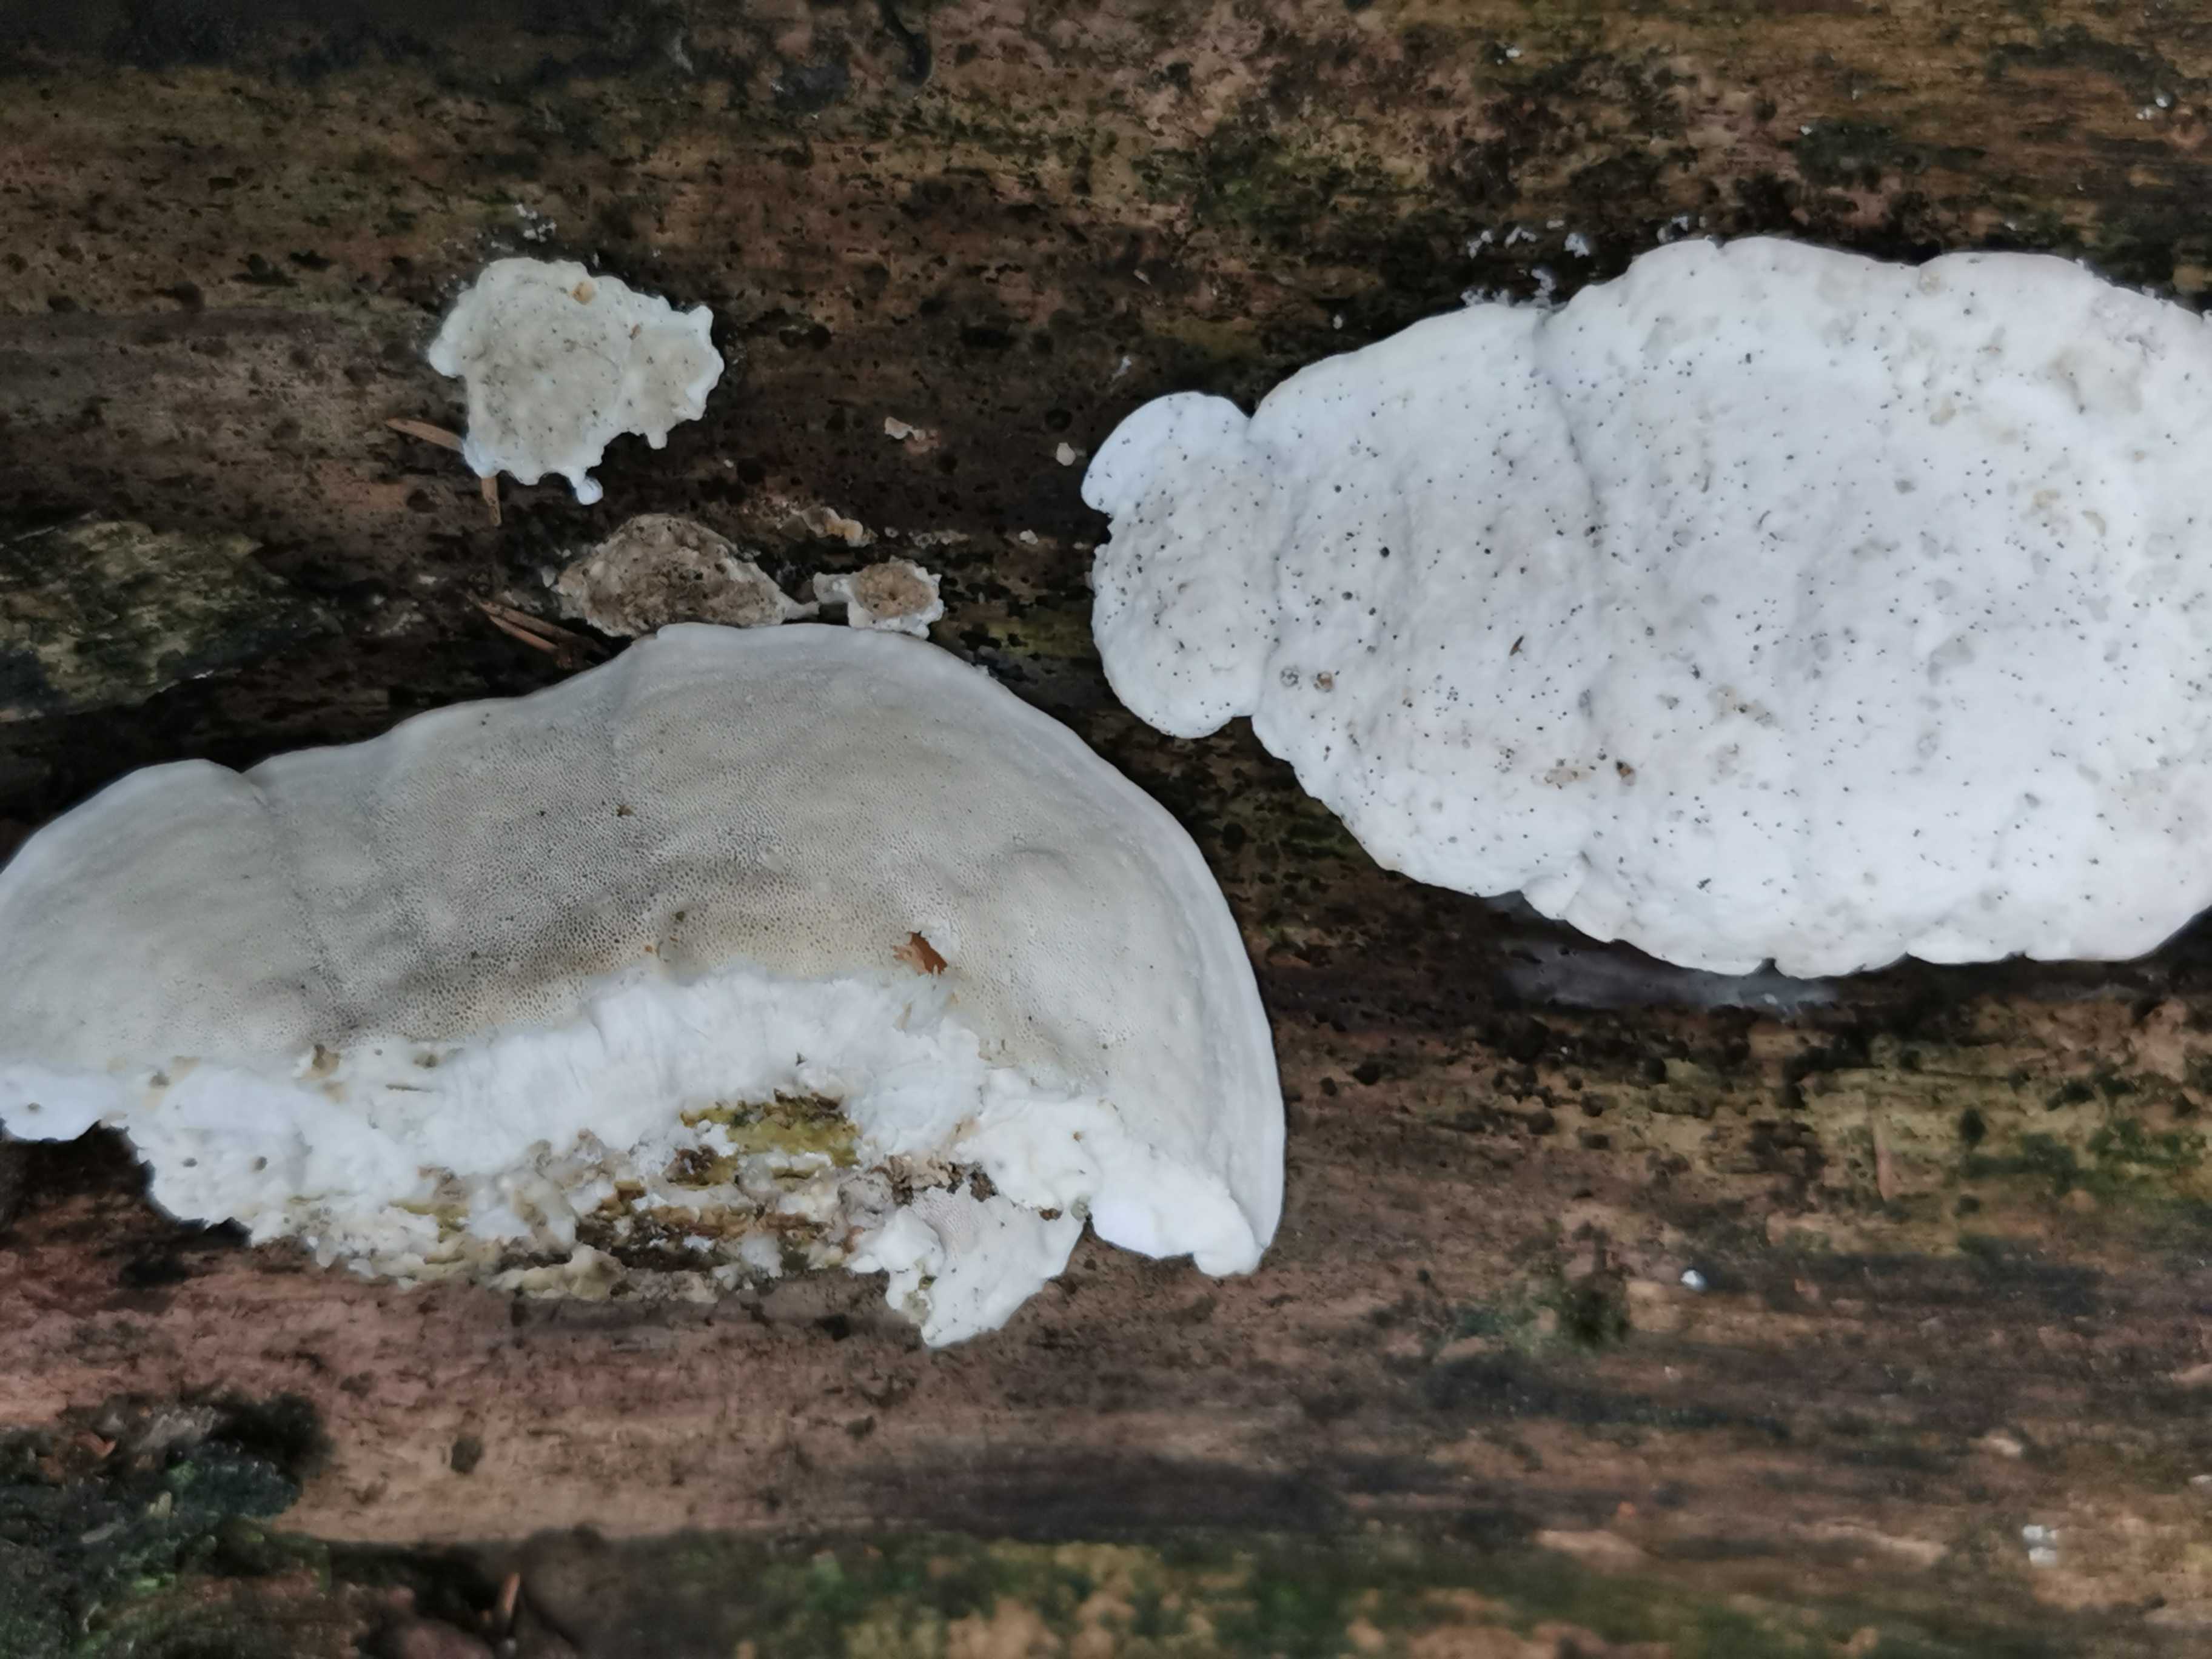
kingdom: Fungi
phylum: Basidiomycota
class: Agaricomycetes
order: Polyporales
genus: Amaropostia
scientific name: Amaropostia stiptica
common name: bitter kødporesvamp
